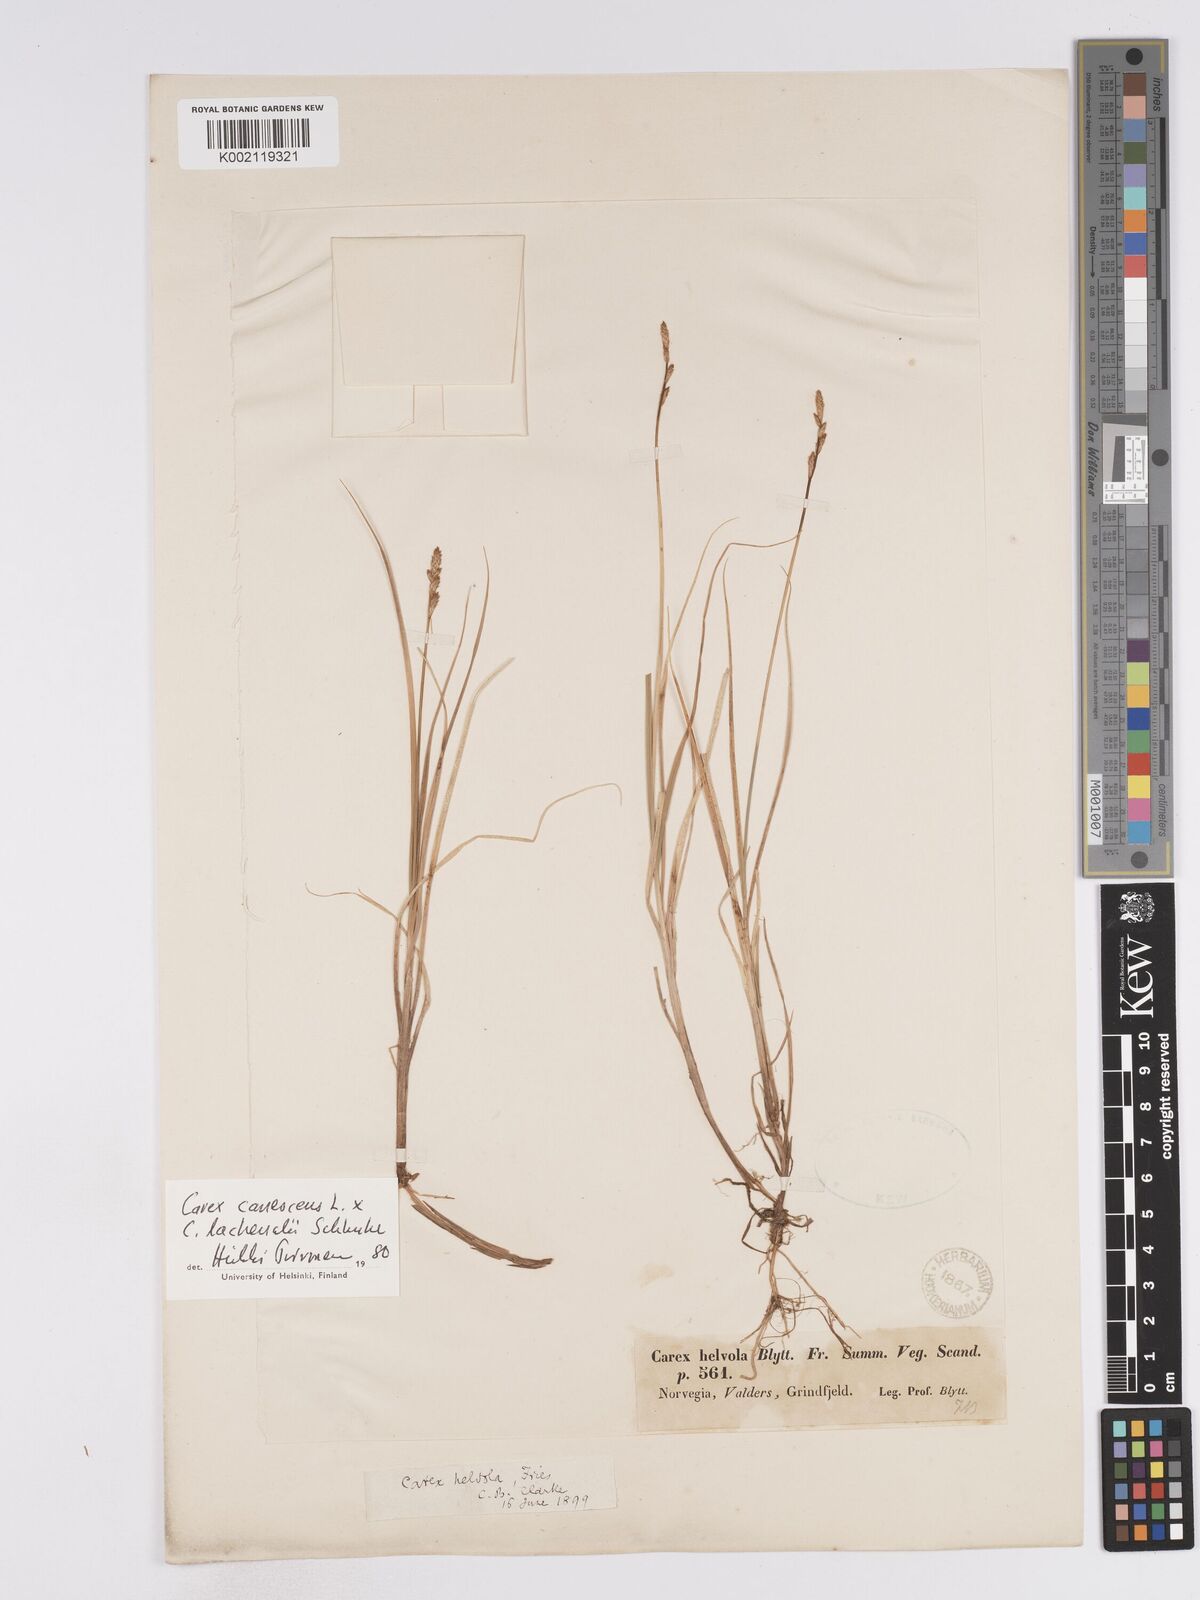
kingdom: Plantae
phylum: Tracheophyta
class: Liliopsida
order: Poales
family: Cyperaceae
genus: Carex
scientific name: Carex
